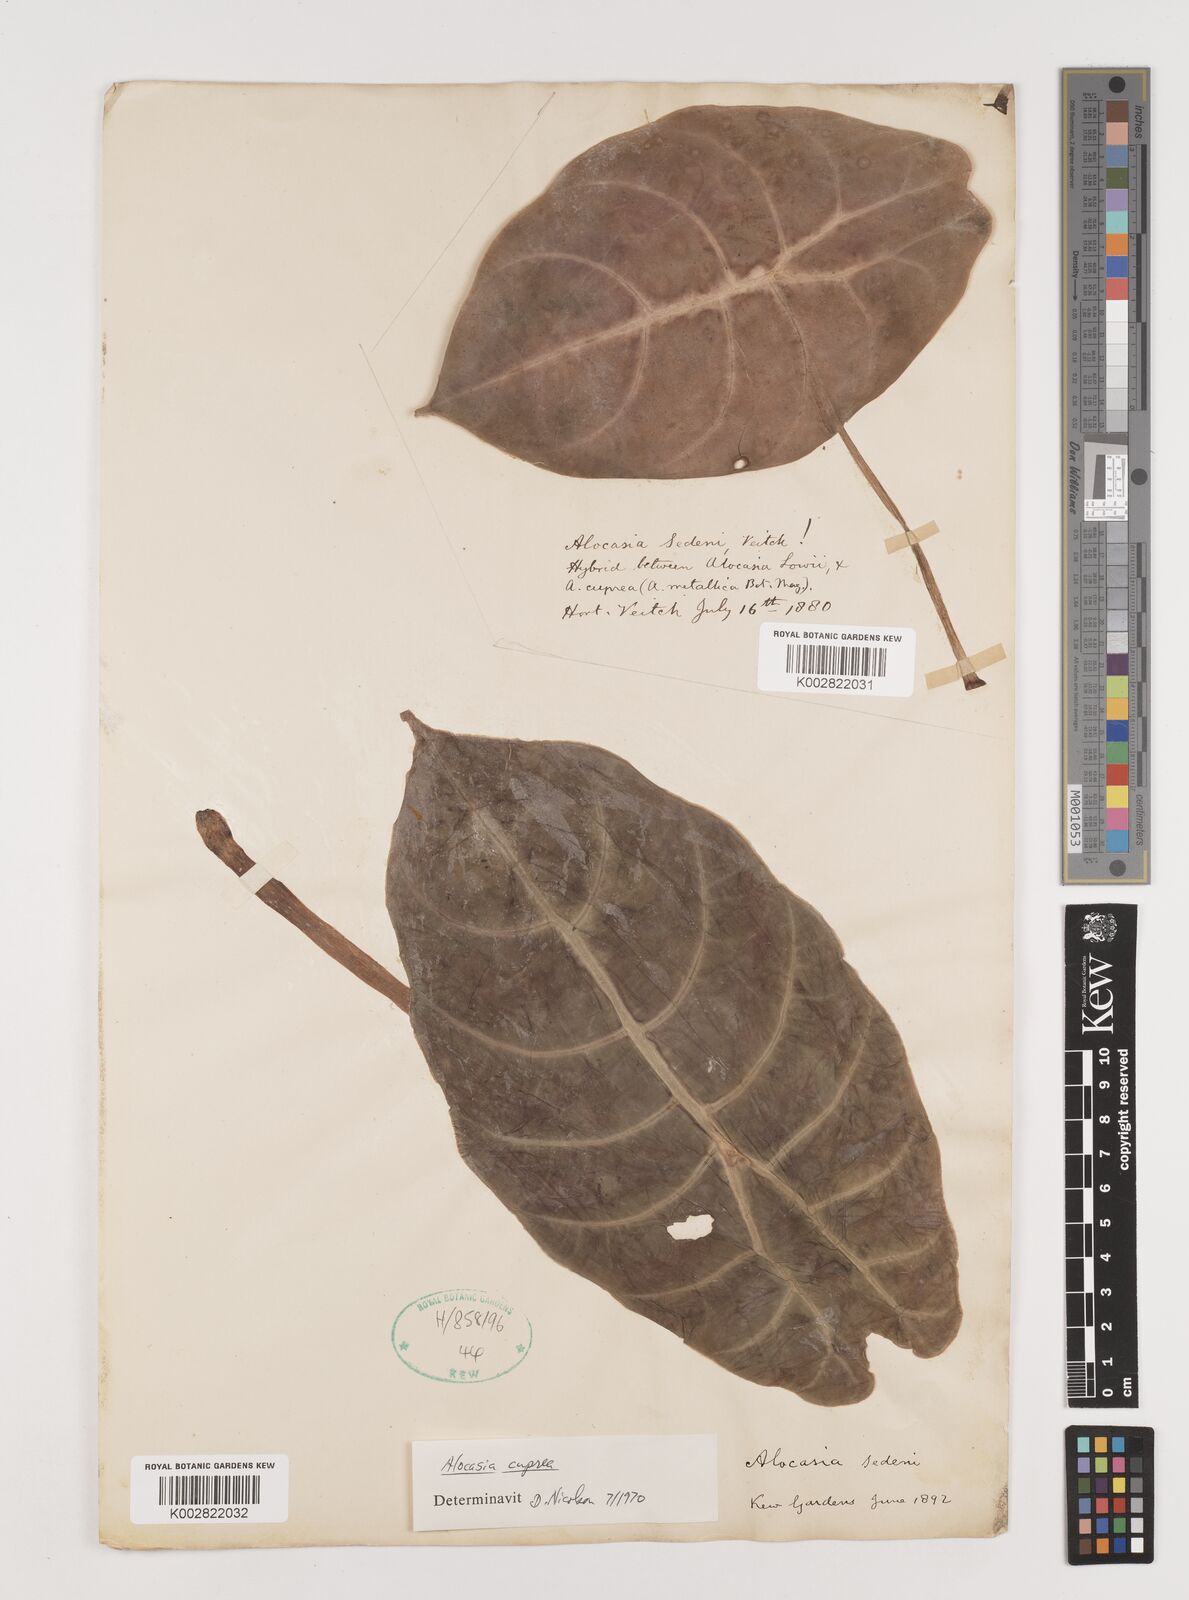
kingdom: Plantae
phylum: Tracheophyta
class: Liliopsida
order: Alismatales
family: Araceae
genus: Alocasia
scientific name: Alocasia
